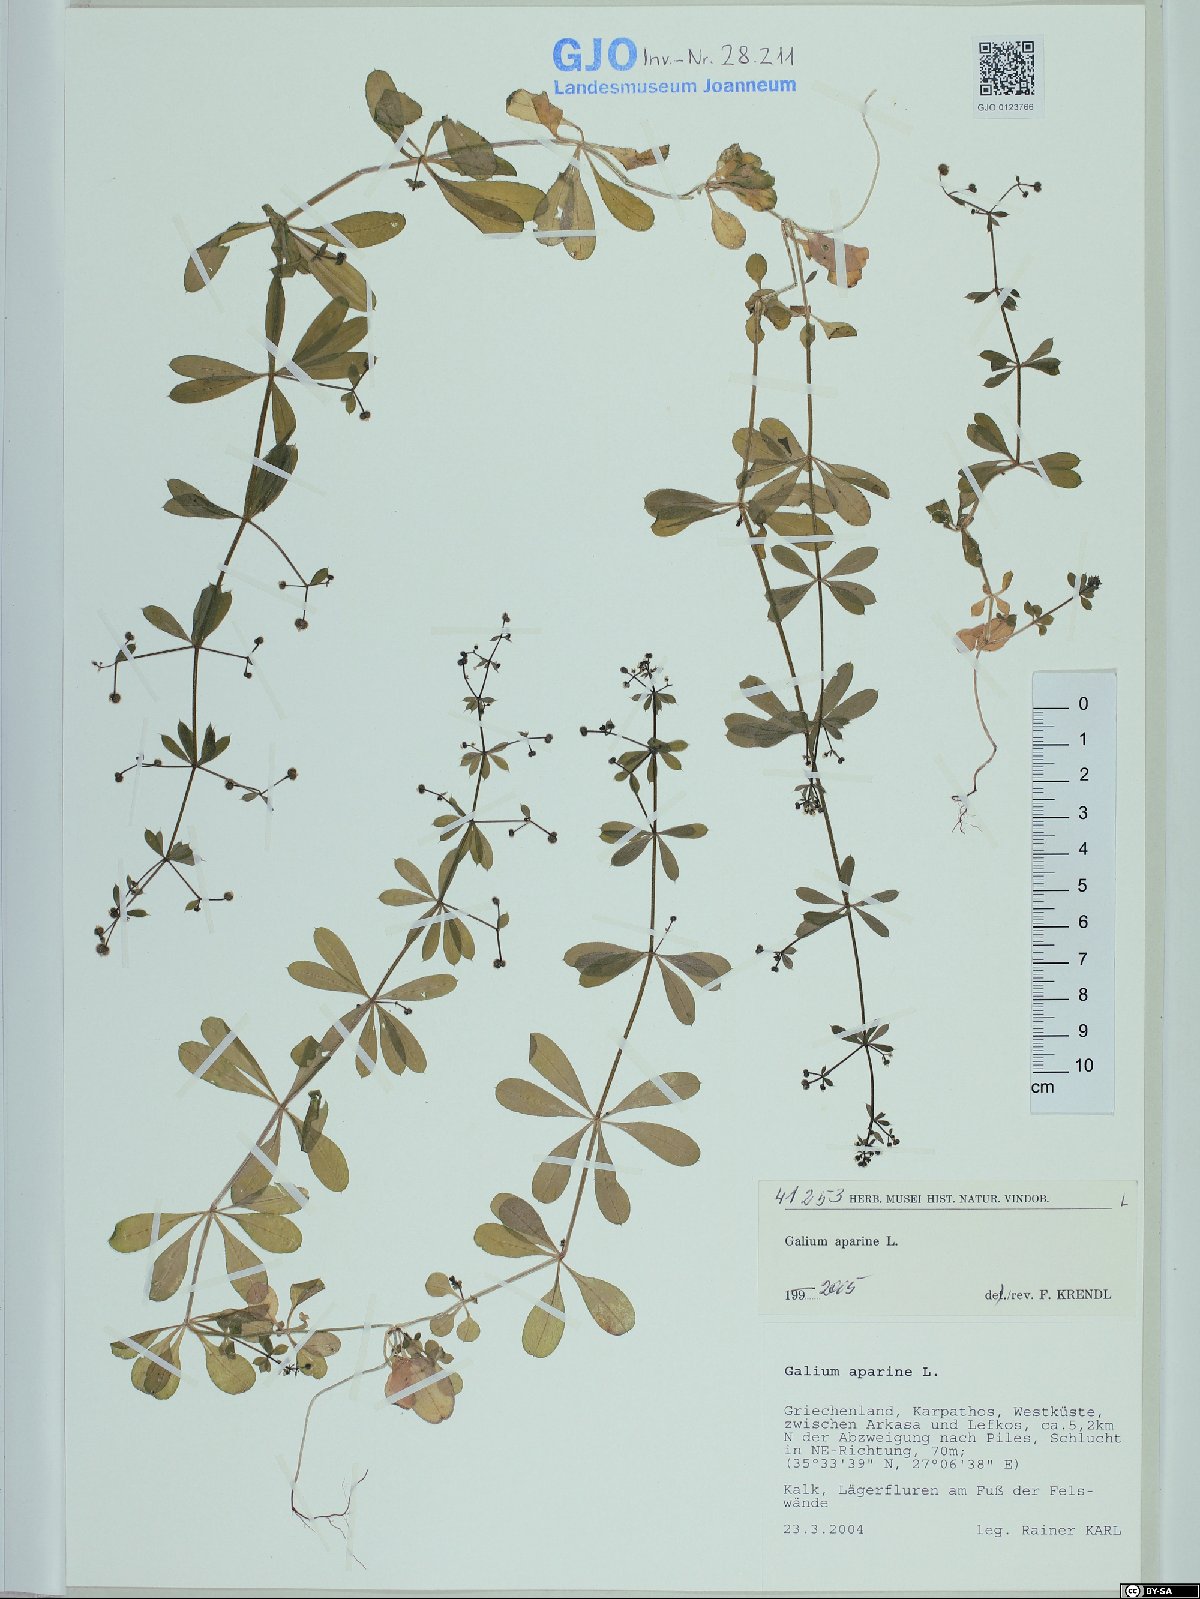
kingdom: Plantae
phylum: Tracheophyta
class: Magnoliopsida
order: Gentianales
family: Rubiaceae
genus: Galium
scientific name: Galium aparine
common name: Cleavers
